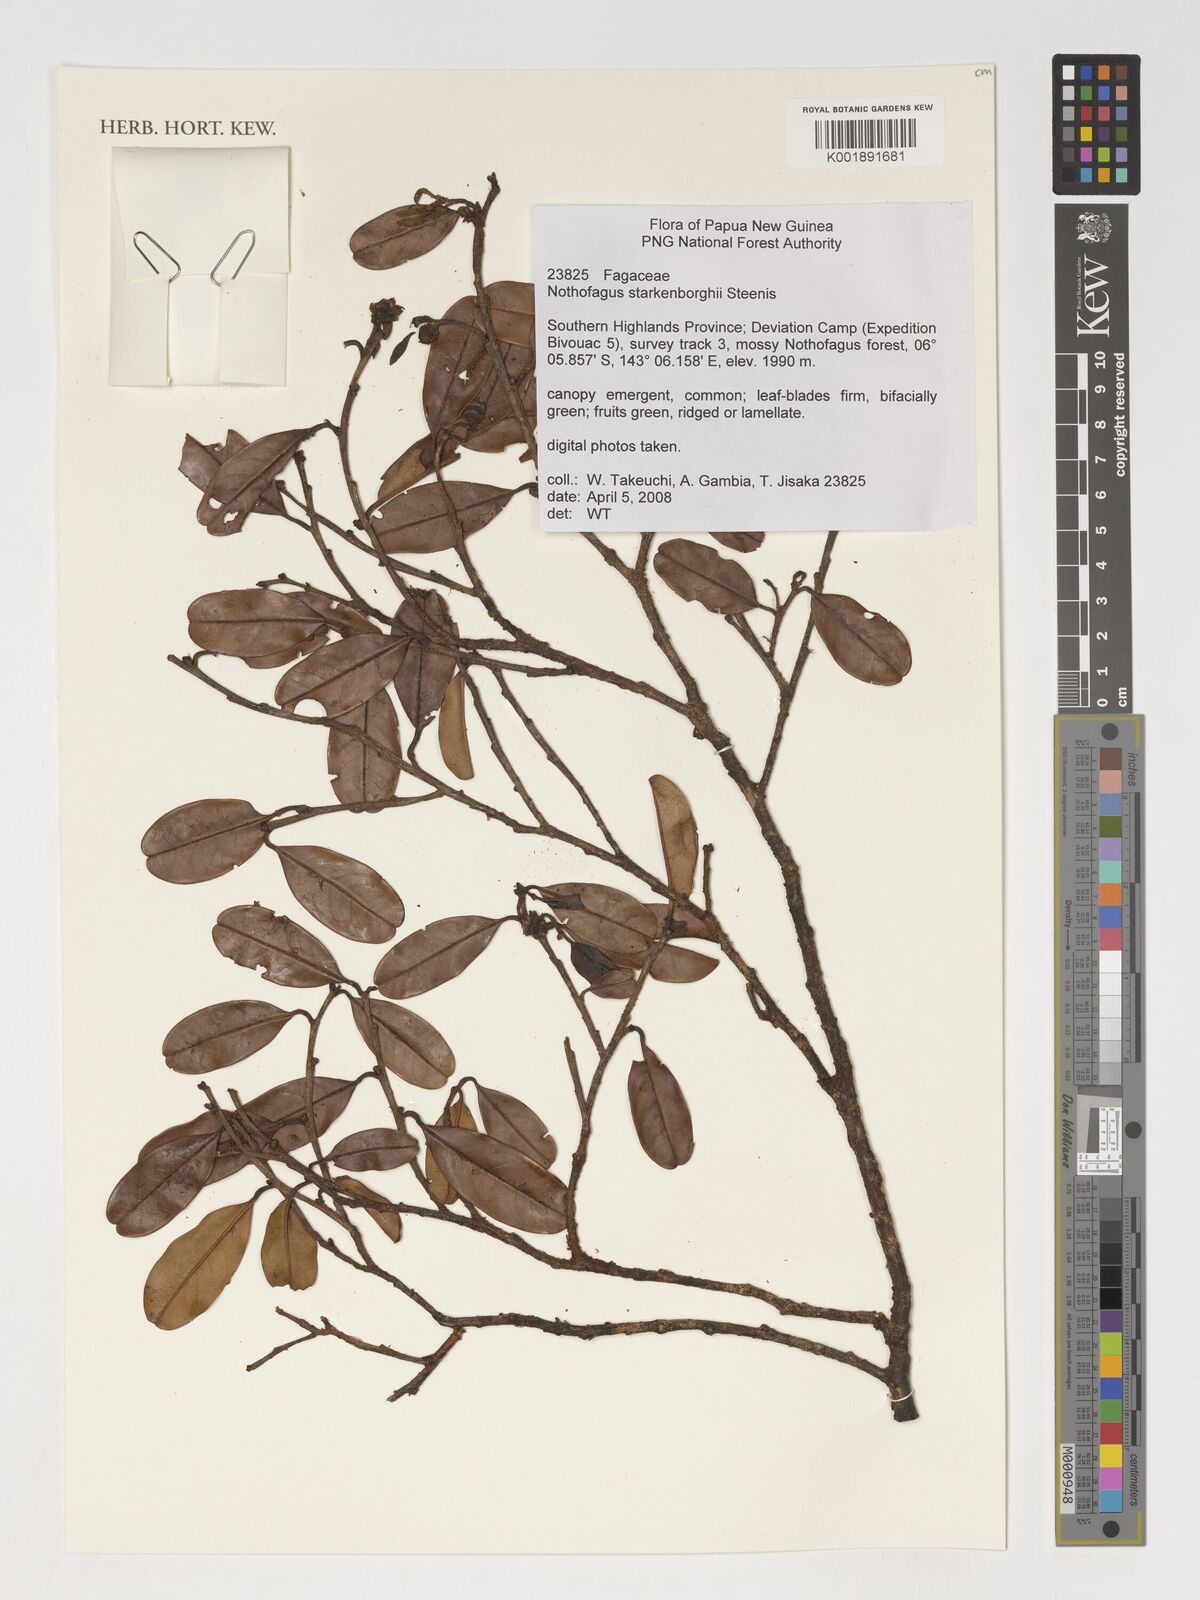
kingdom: Plantae
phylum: Tracheophyta
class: Magnoliopsida
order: Fagales
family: Nothofagaceae
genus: Nothofagus
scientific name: Nothofagus starkenborghiorum
